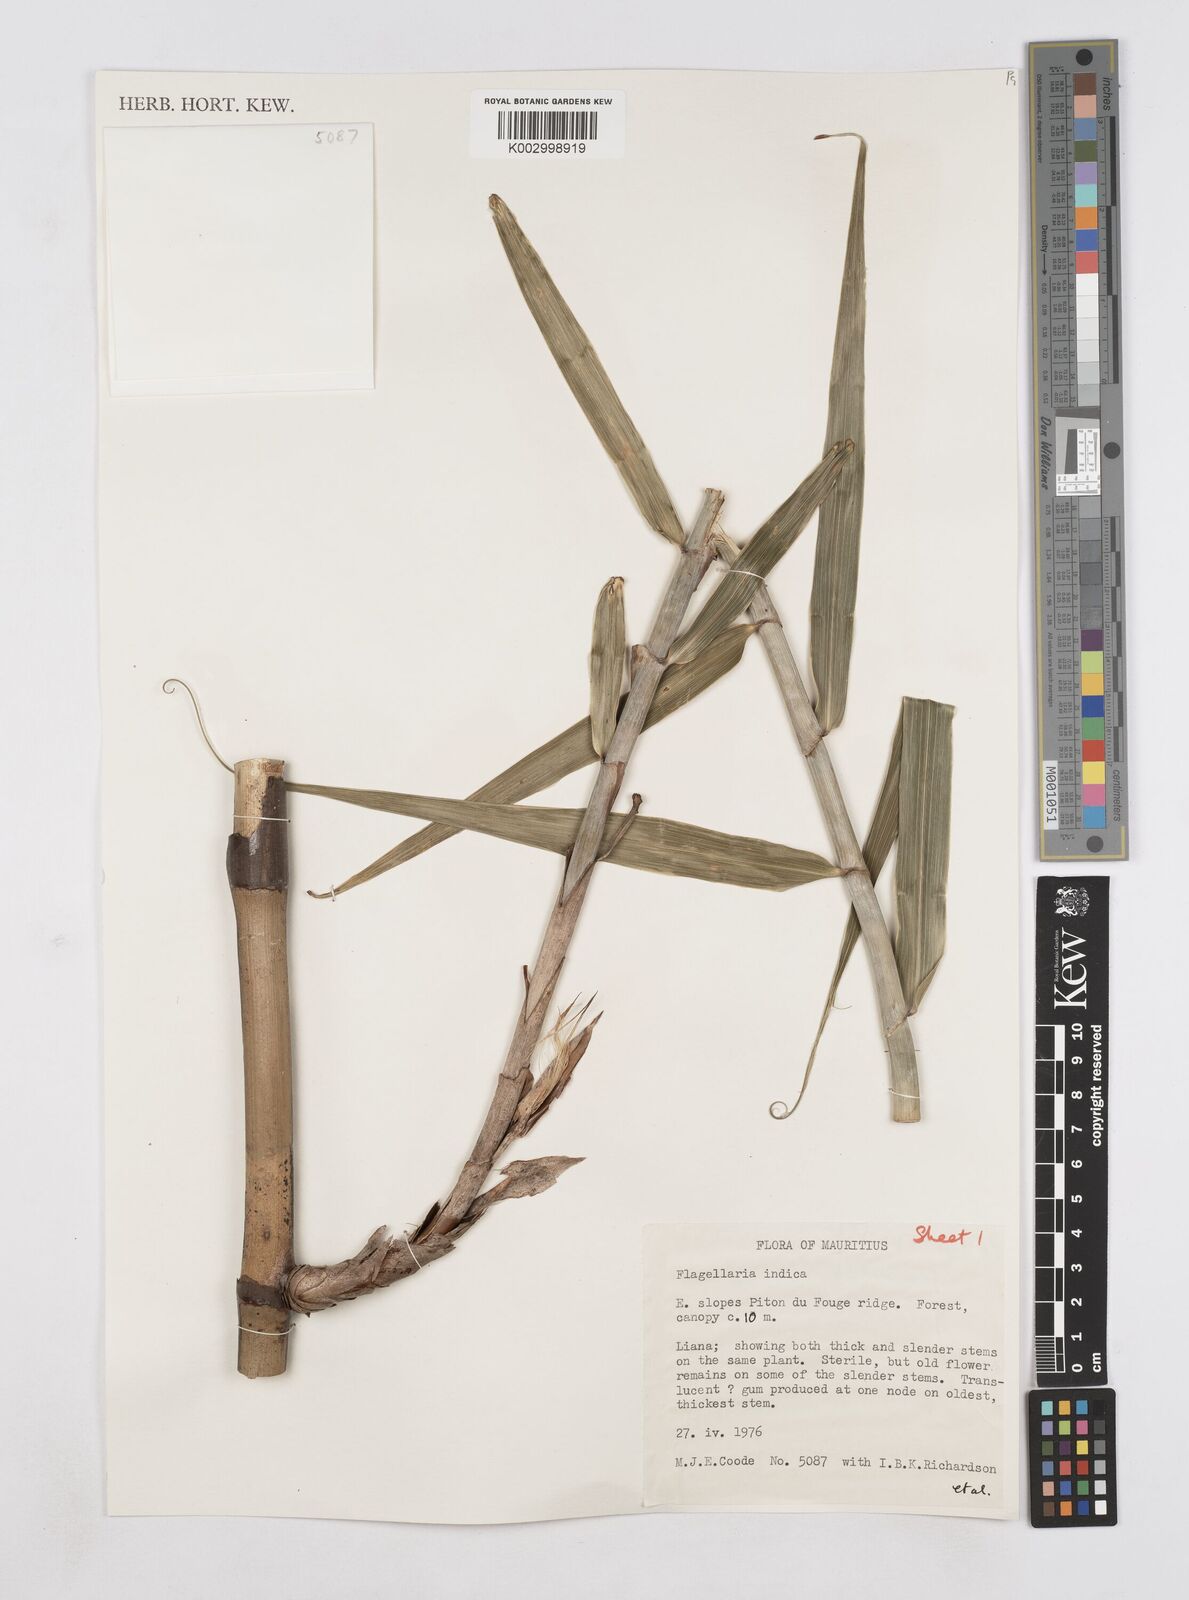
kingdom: Plantae
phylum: Tracheophyta
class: Liliopsida
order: Poales
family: Flagellariaceae
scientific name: Flagellariaceae
